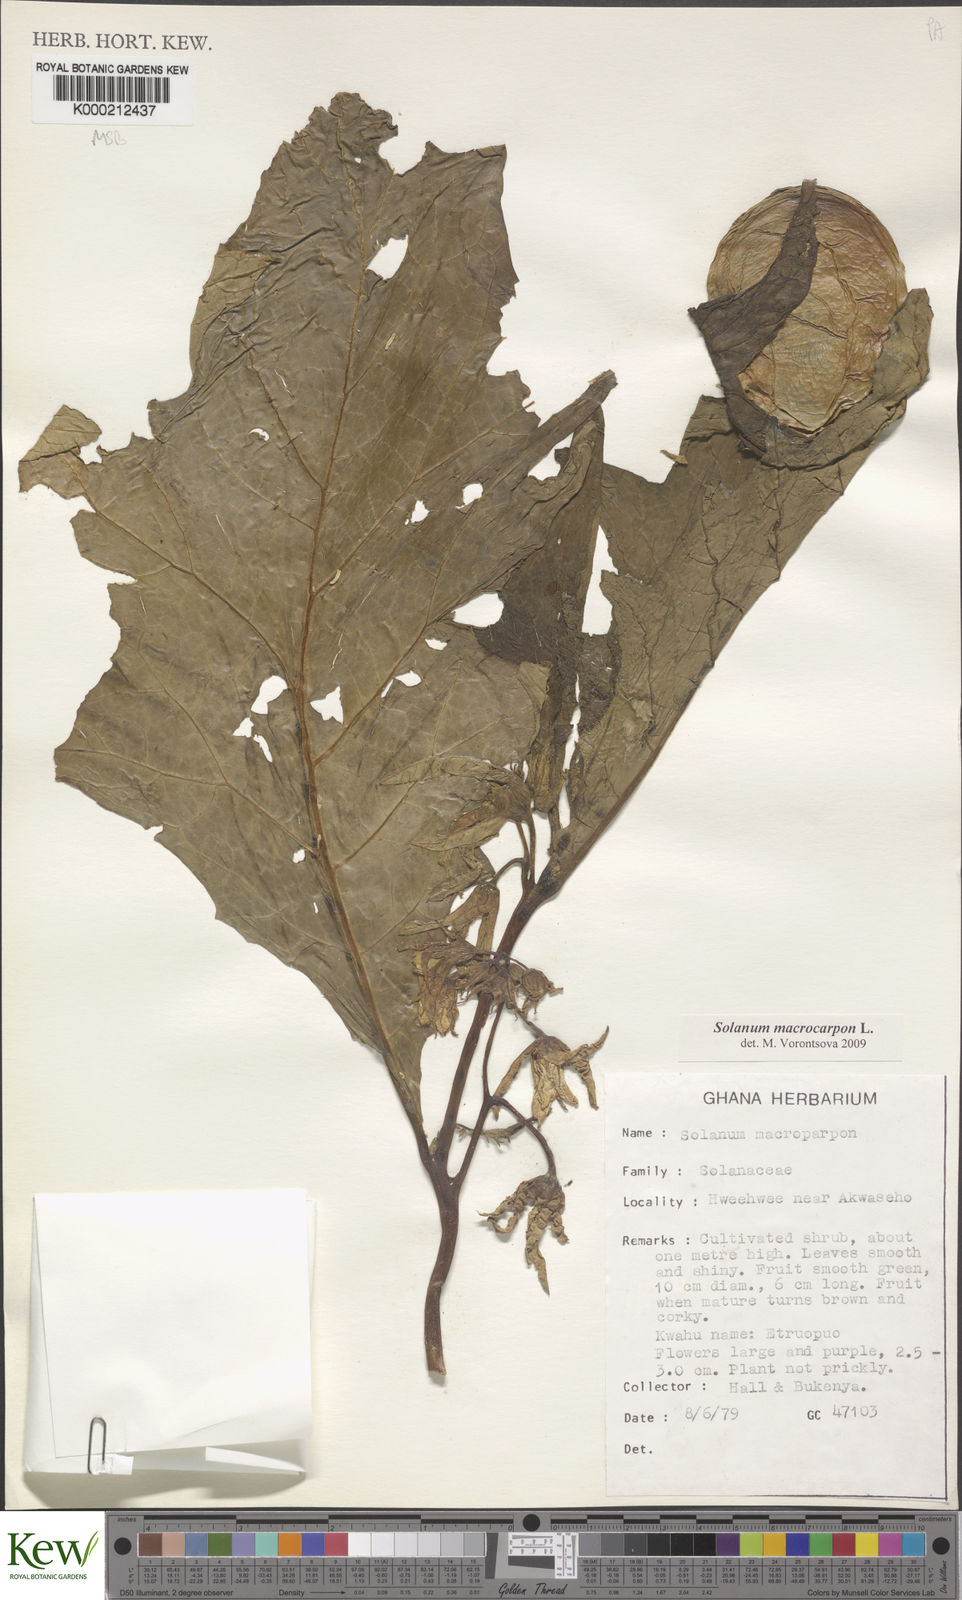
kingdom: Plantae
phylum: Tracheophyta
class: Magnoliopsida
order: Solanales
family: Solanaceae
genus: Solanum
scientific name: Solanum macrocarpon
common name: African eggplant
